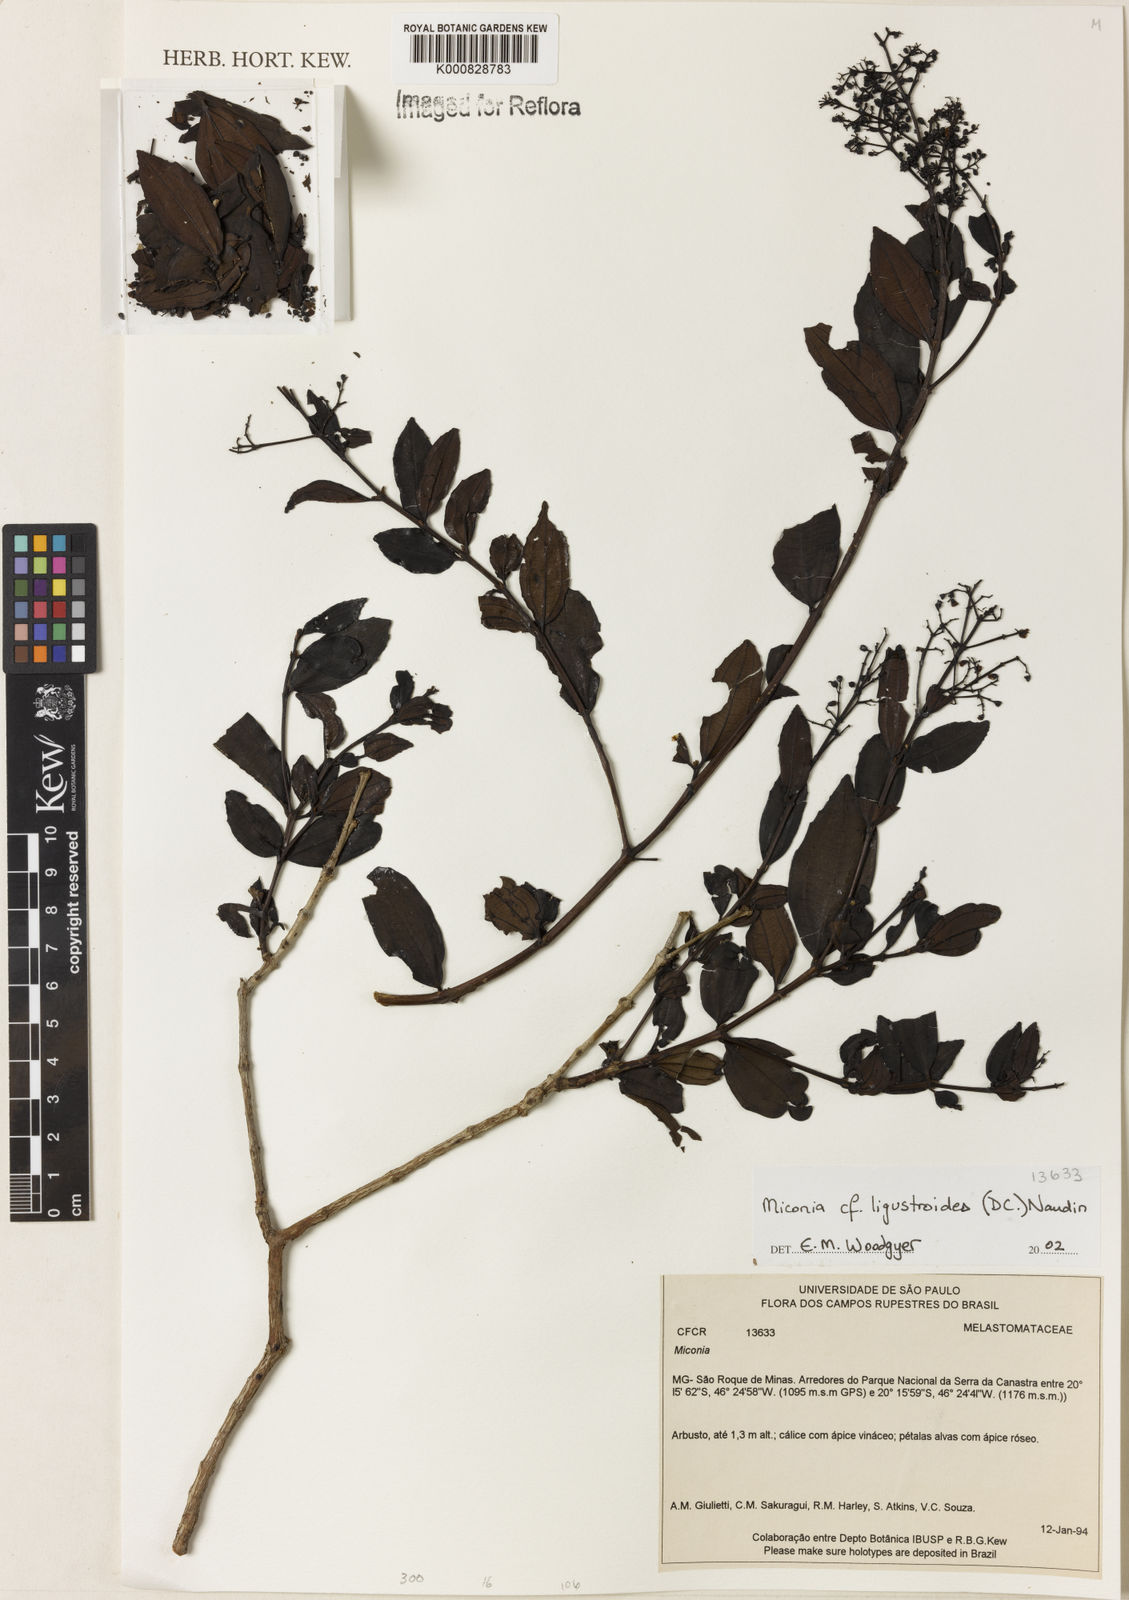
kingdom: Plantae
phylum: Tracheophyta
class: Magnoliopsida
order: Myrtales
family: Melastomataceae
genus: Miconia
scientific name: Miconia ligustroides
